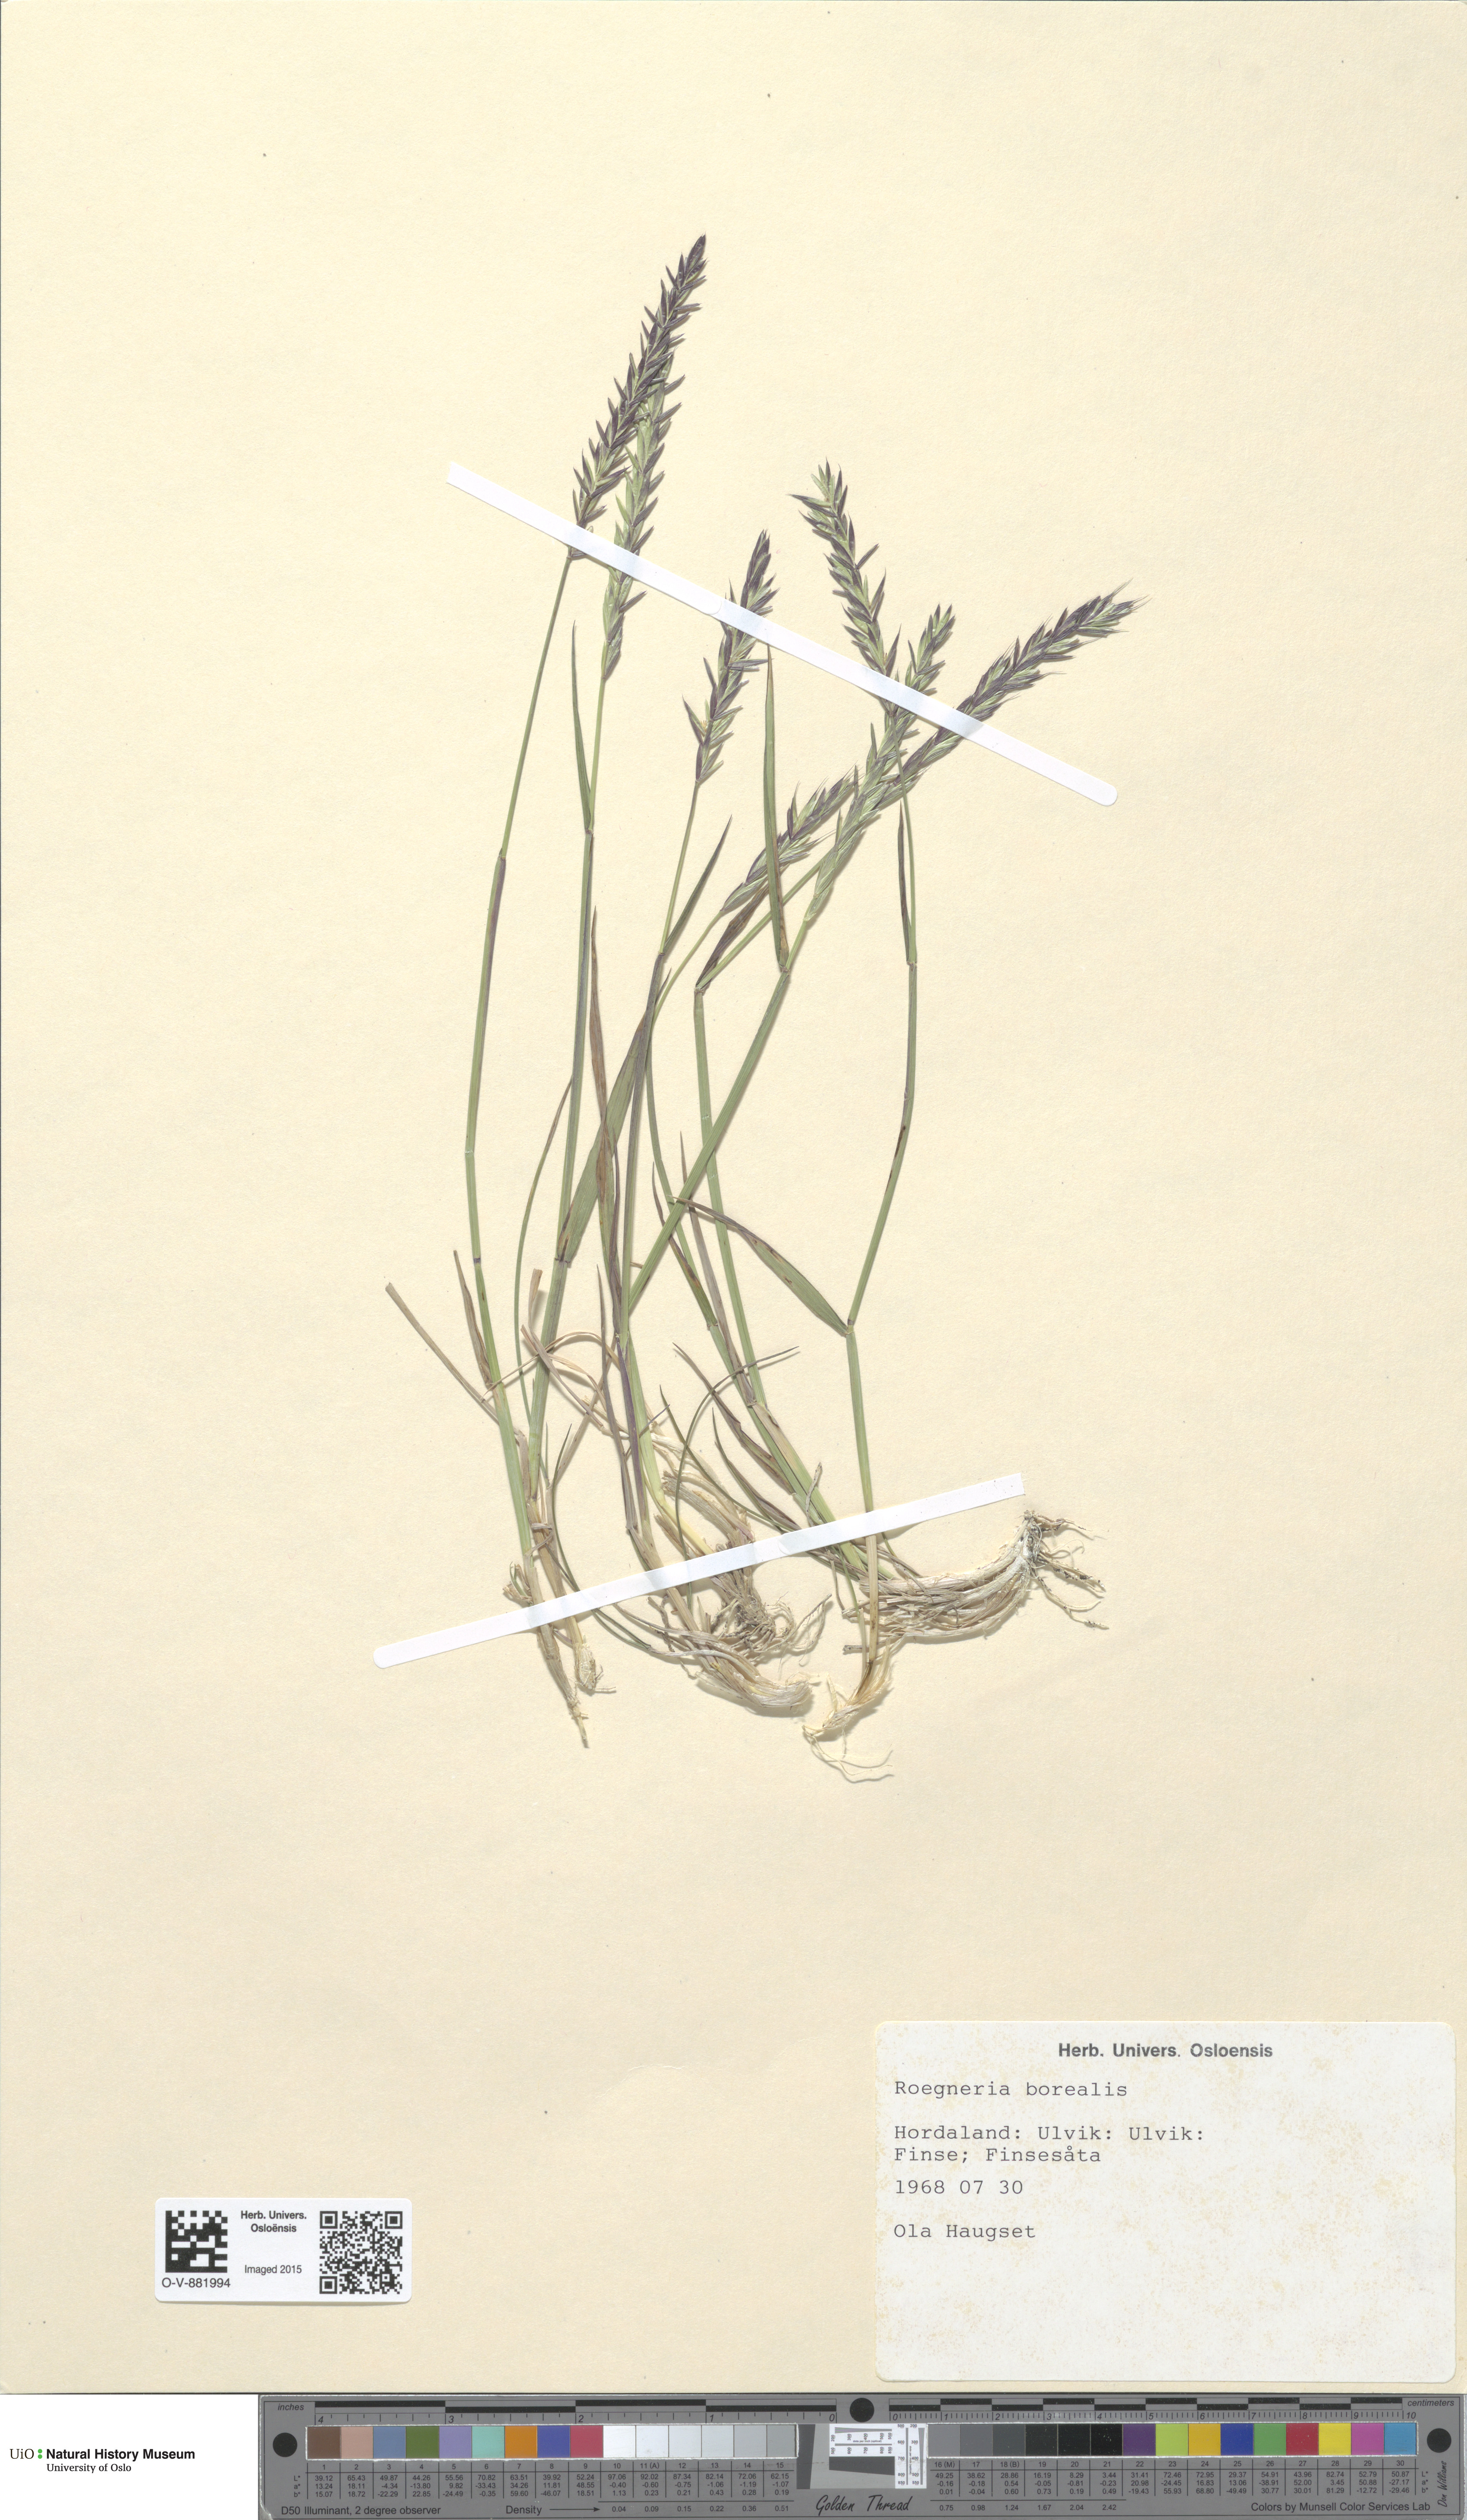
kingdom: Plantae
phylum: Tracheophyta
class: Liliopsida
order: Poales
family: Poaceae
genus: Elymus
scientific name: Elymus macrourus
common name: Northern wheatgrass
